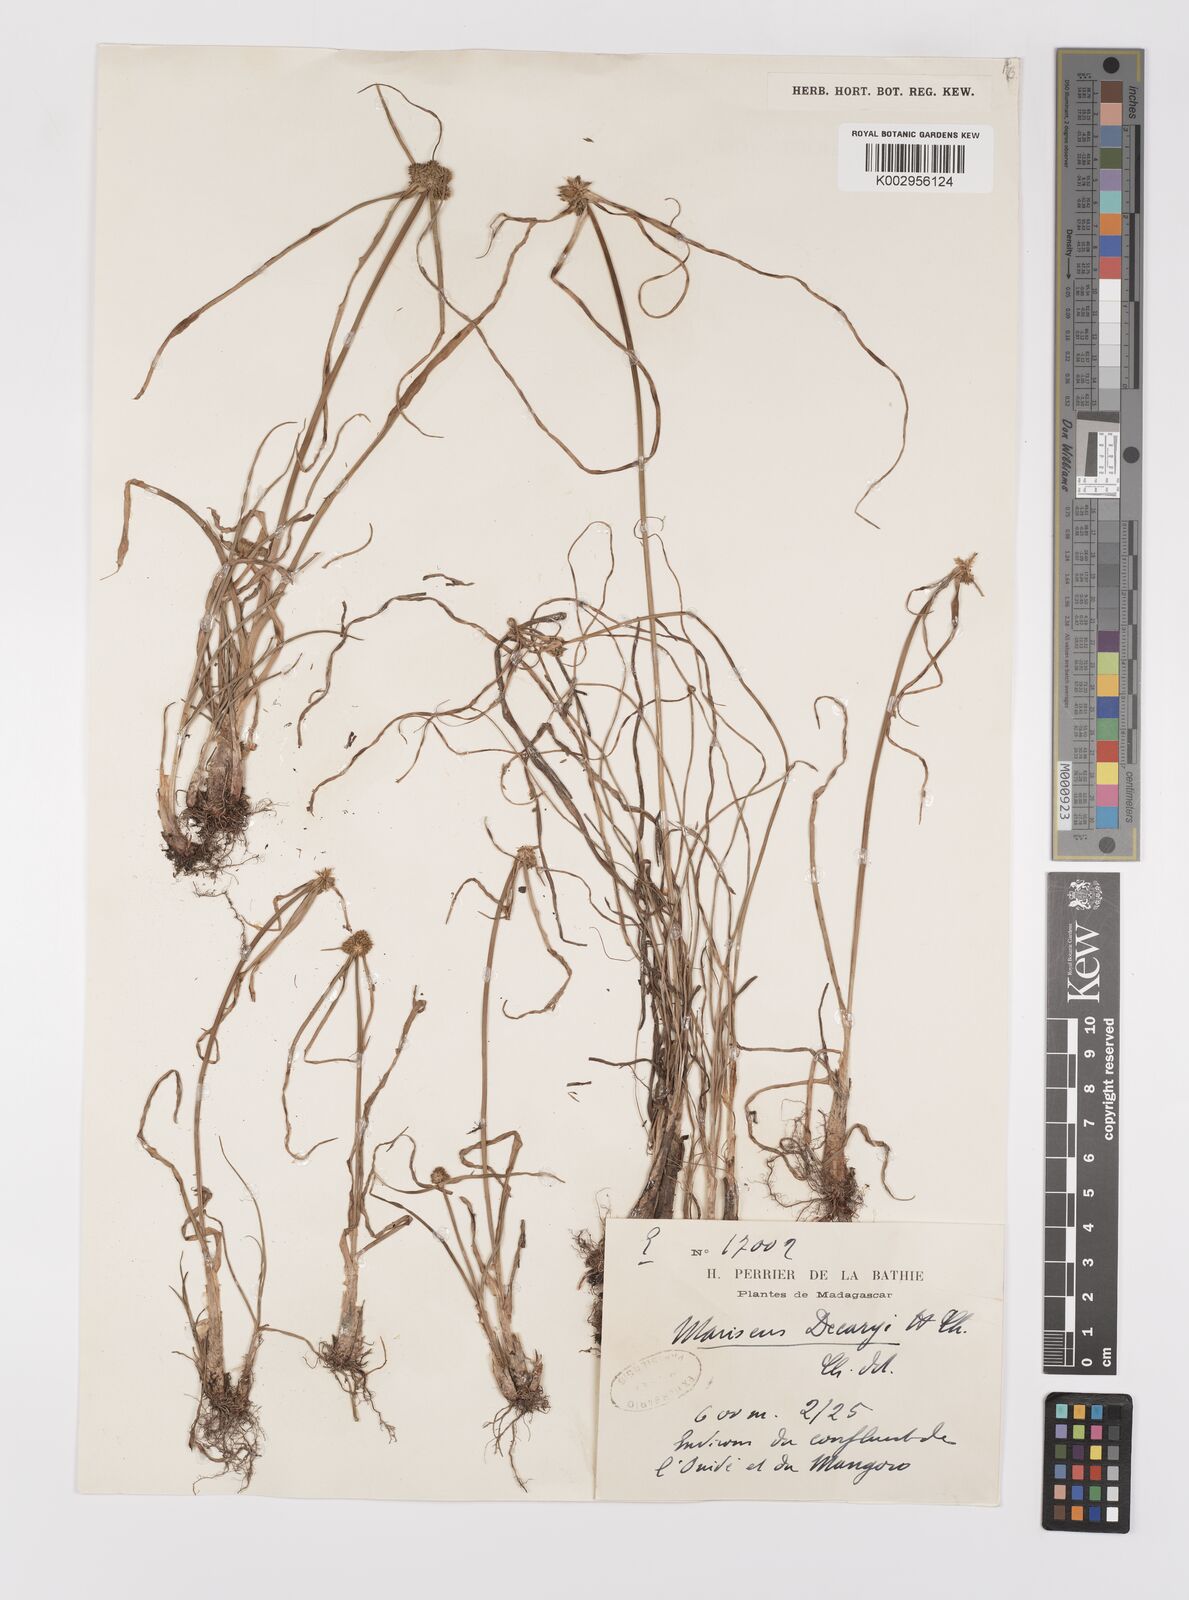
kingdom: Plantae
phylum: Tracheophyta
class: Liliopsida
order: Poales
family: Cyperaceae
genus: Cyperus
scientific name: Cyperus dubius
